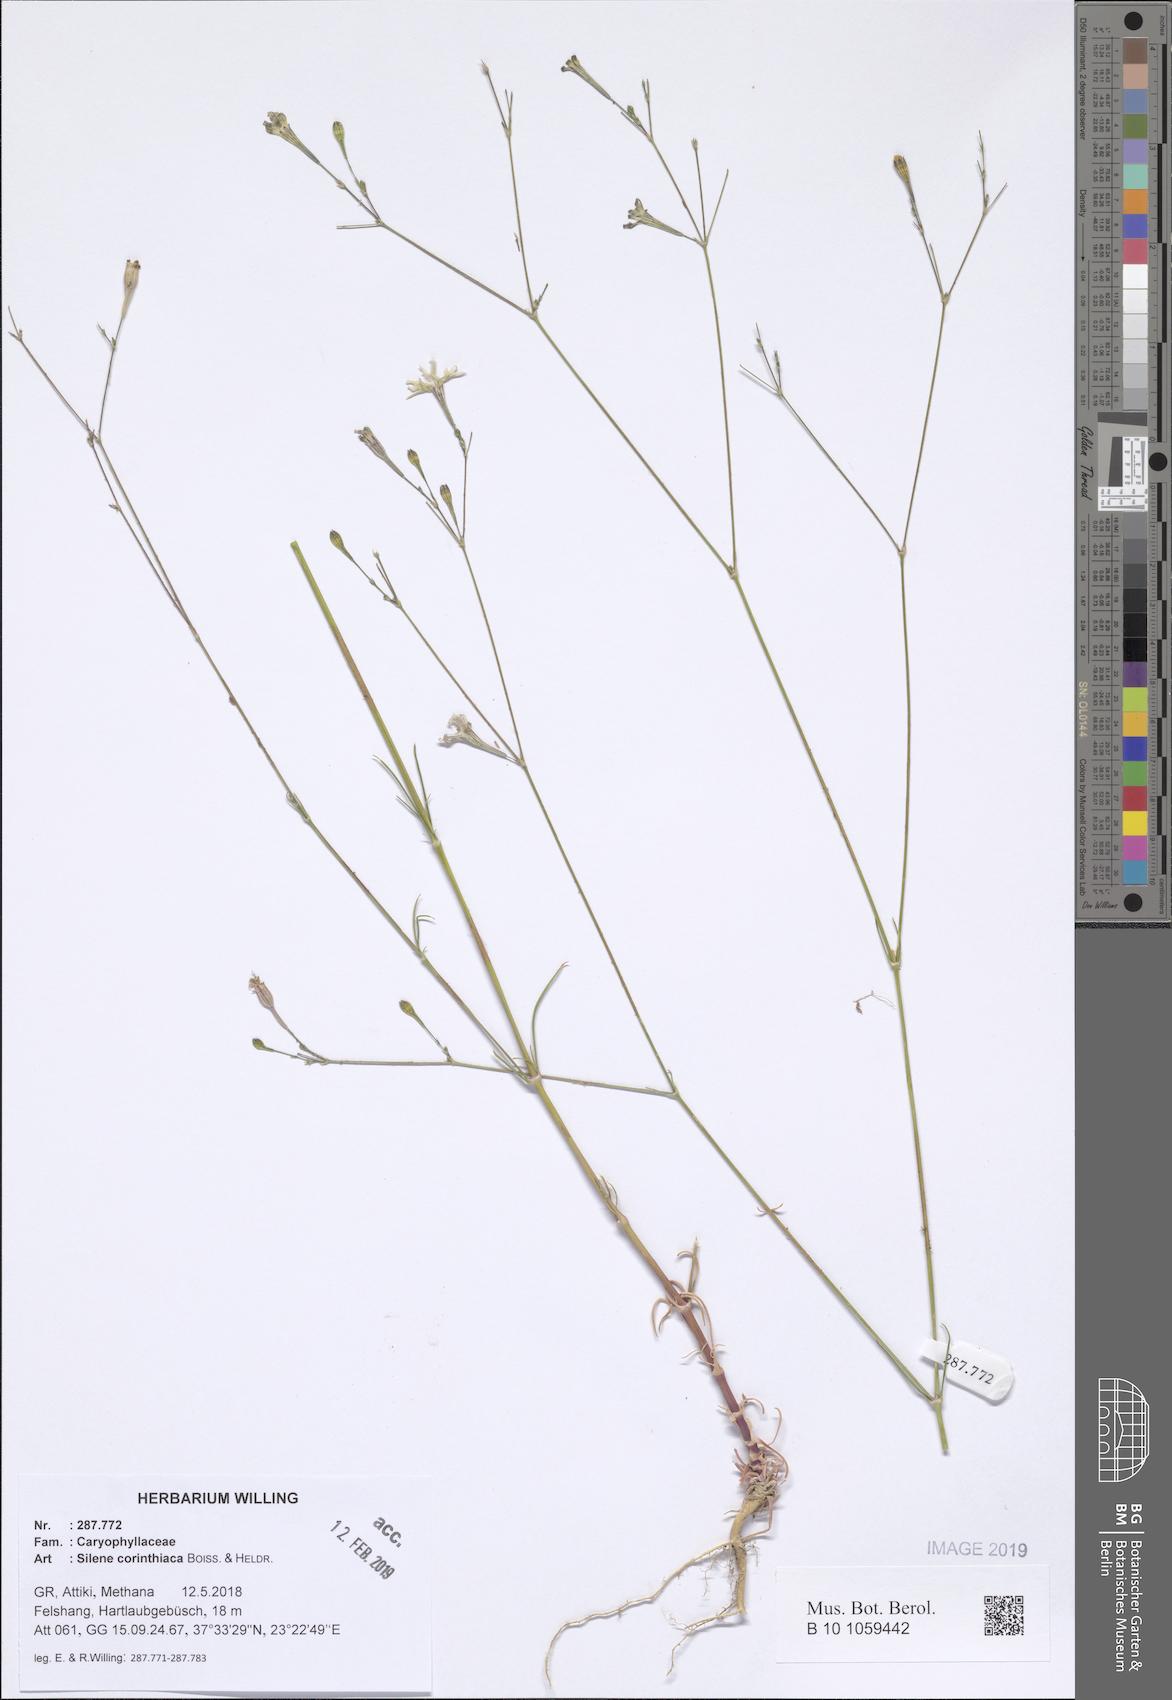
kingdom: Plantae
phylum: Tracheophyta
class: Magnoliopsida
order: Caryophyllales
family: Caryophyllaceae
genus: Silene
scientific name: Silene corinthiaca
